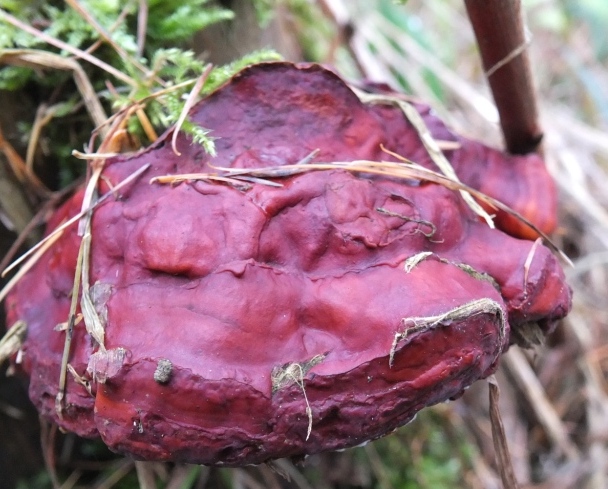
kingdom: Fungi
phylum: Basidiomycota
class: Agaricomycetes
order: Polyporales
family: Polyporaceae
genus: Ganoderma
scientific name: Ganoderma lucidum
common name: skinnende lakporesvamp
